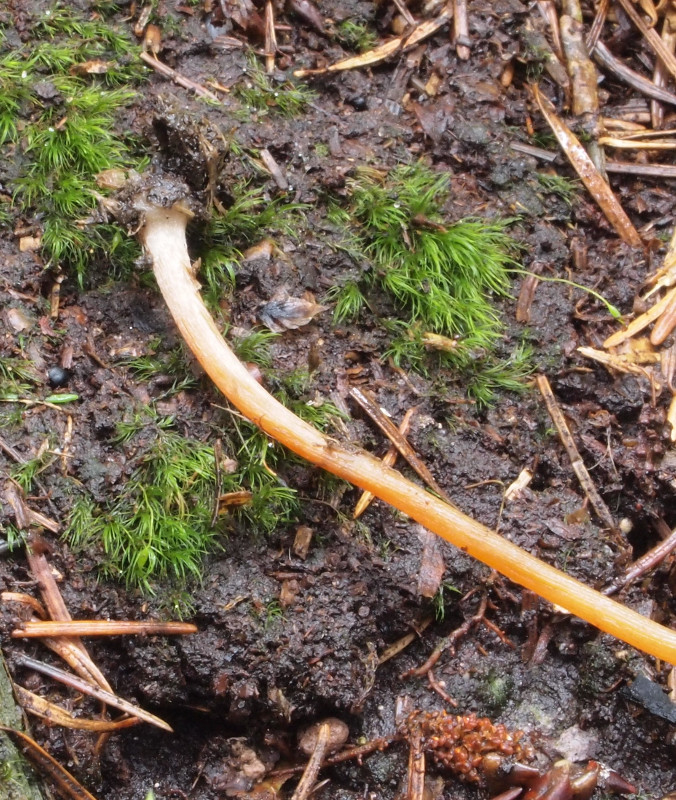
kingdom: Fungi
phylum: Basidiomycota
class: Agaricomycetes
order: Agaricales
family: Bolbitiaceae
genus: Conocybe
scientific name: Conocybe
